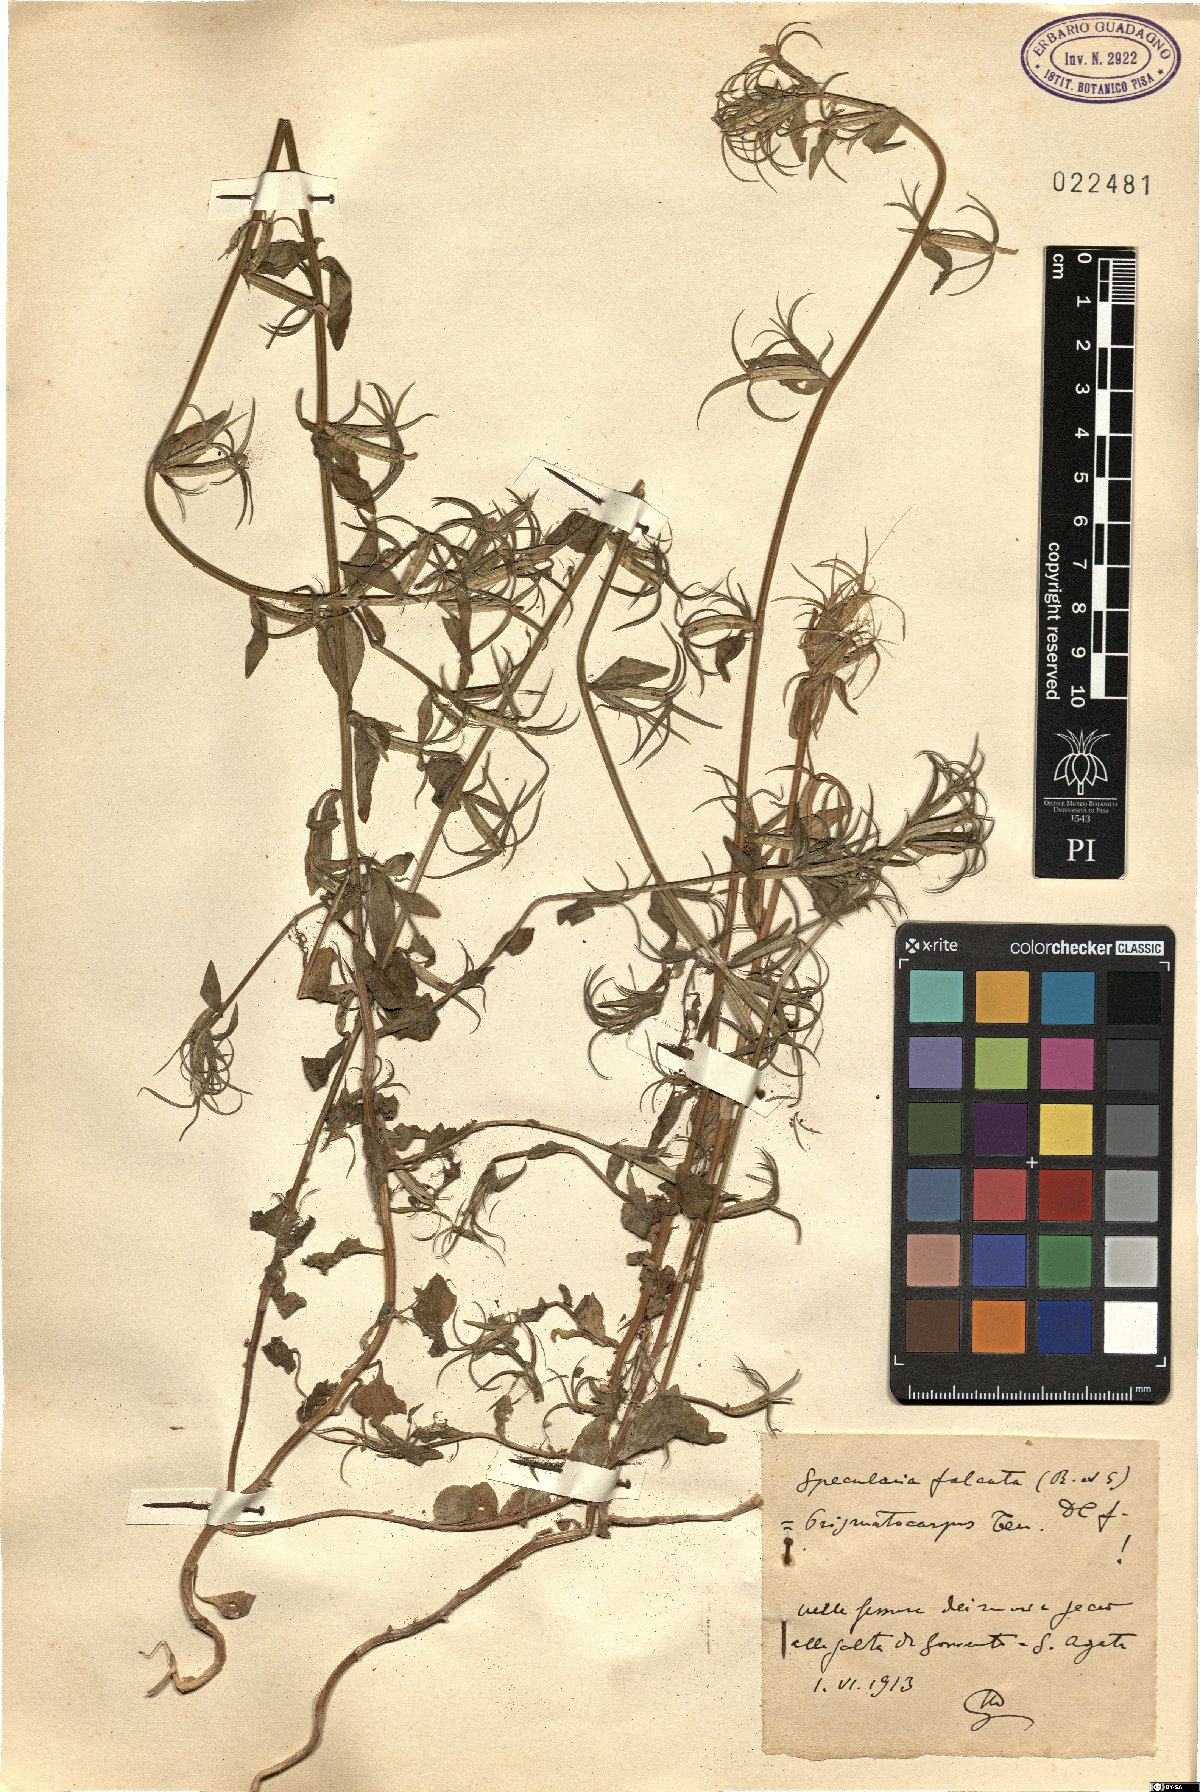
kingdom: Plantae
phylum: Tracheophyta
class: Magnoliopsida
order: Asterales
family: Campanulaceae
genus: Legousia
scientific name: Legousia falcata
